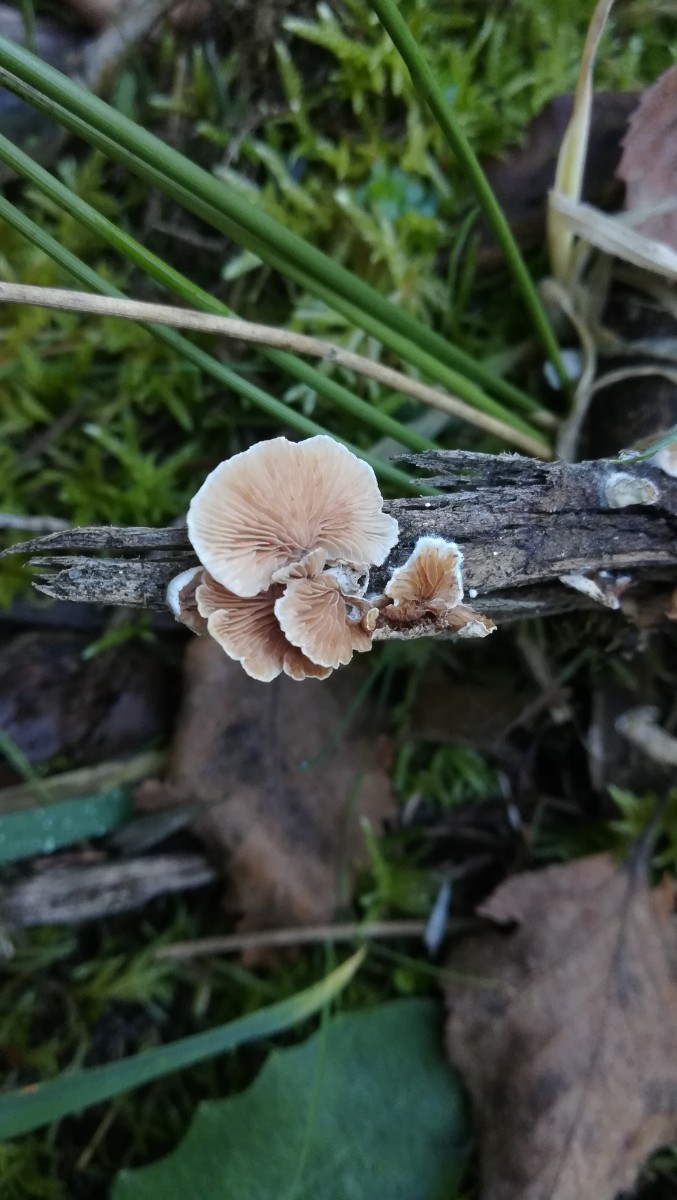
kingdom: Fungi
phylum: Basidiomycota
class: Agaricomycetes
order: Agaricales
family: Crepidotaceae
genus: Crepidotus
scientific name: Crepidotus
